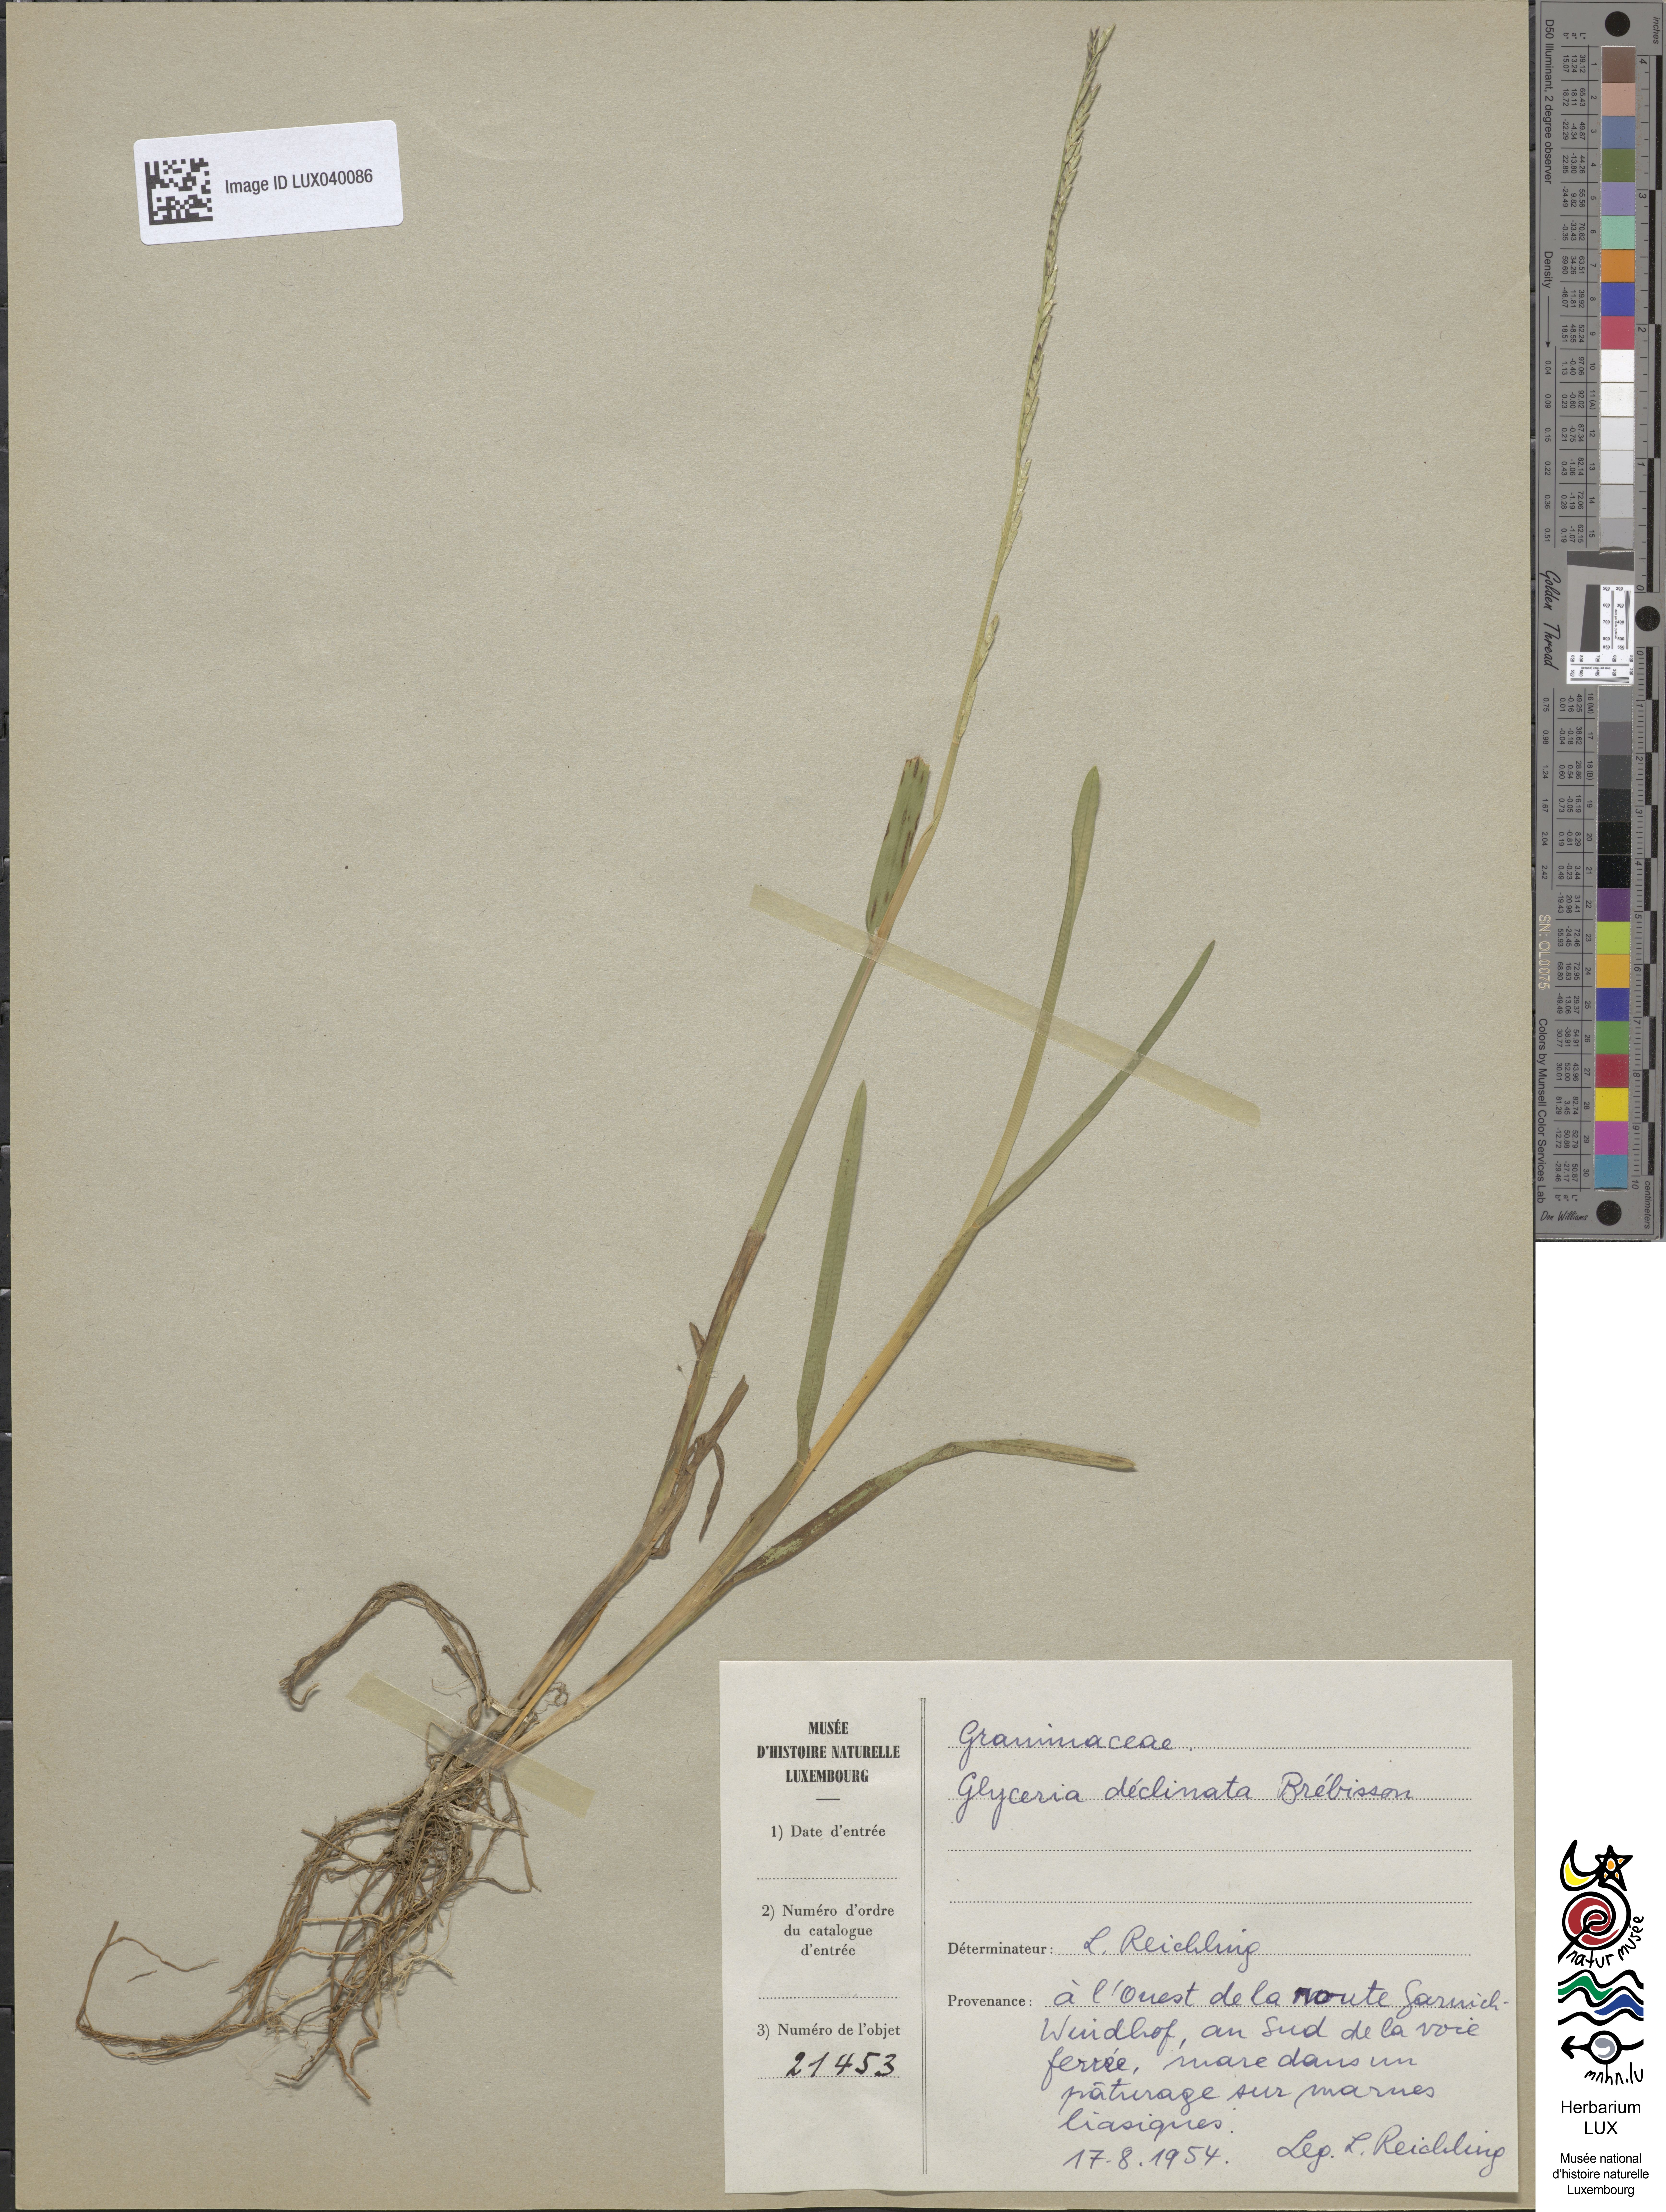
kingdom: Plantae
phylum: Tracheophyta
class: Liliopsida
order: Poales
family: Poaceae
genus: Glyceria
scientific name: Glyceria declinata
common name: Small sweet-grass
